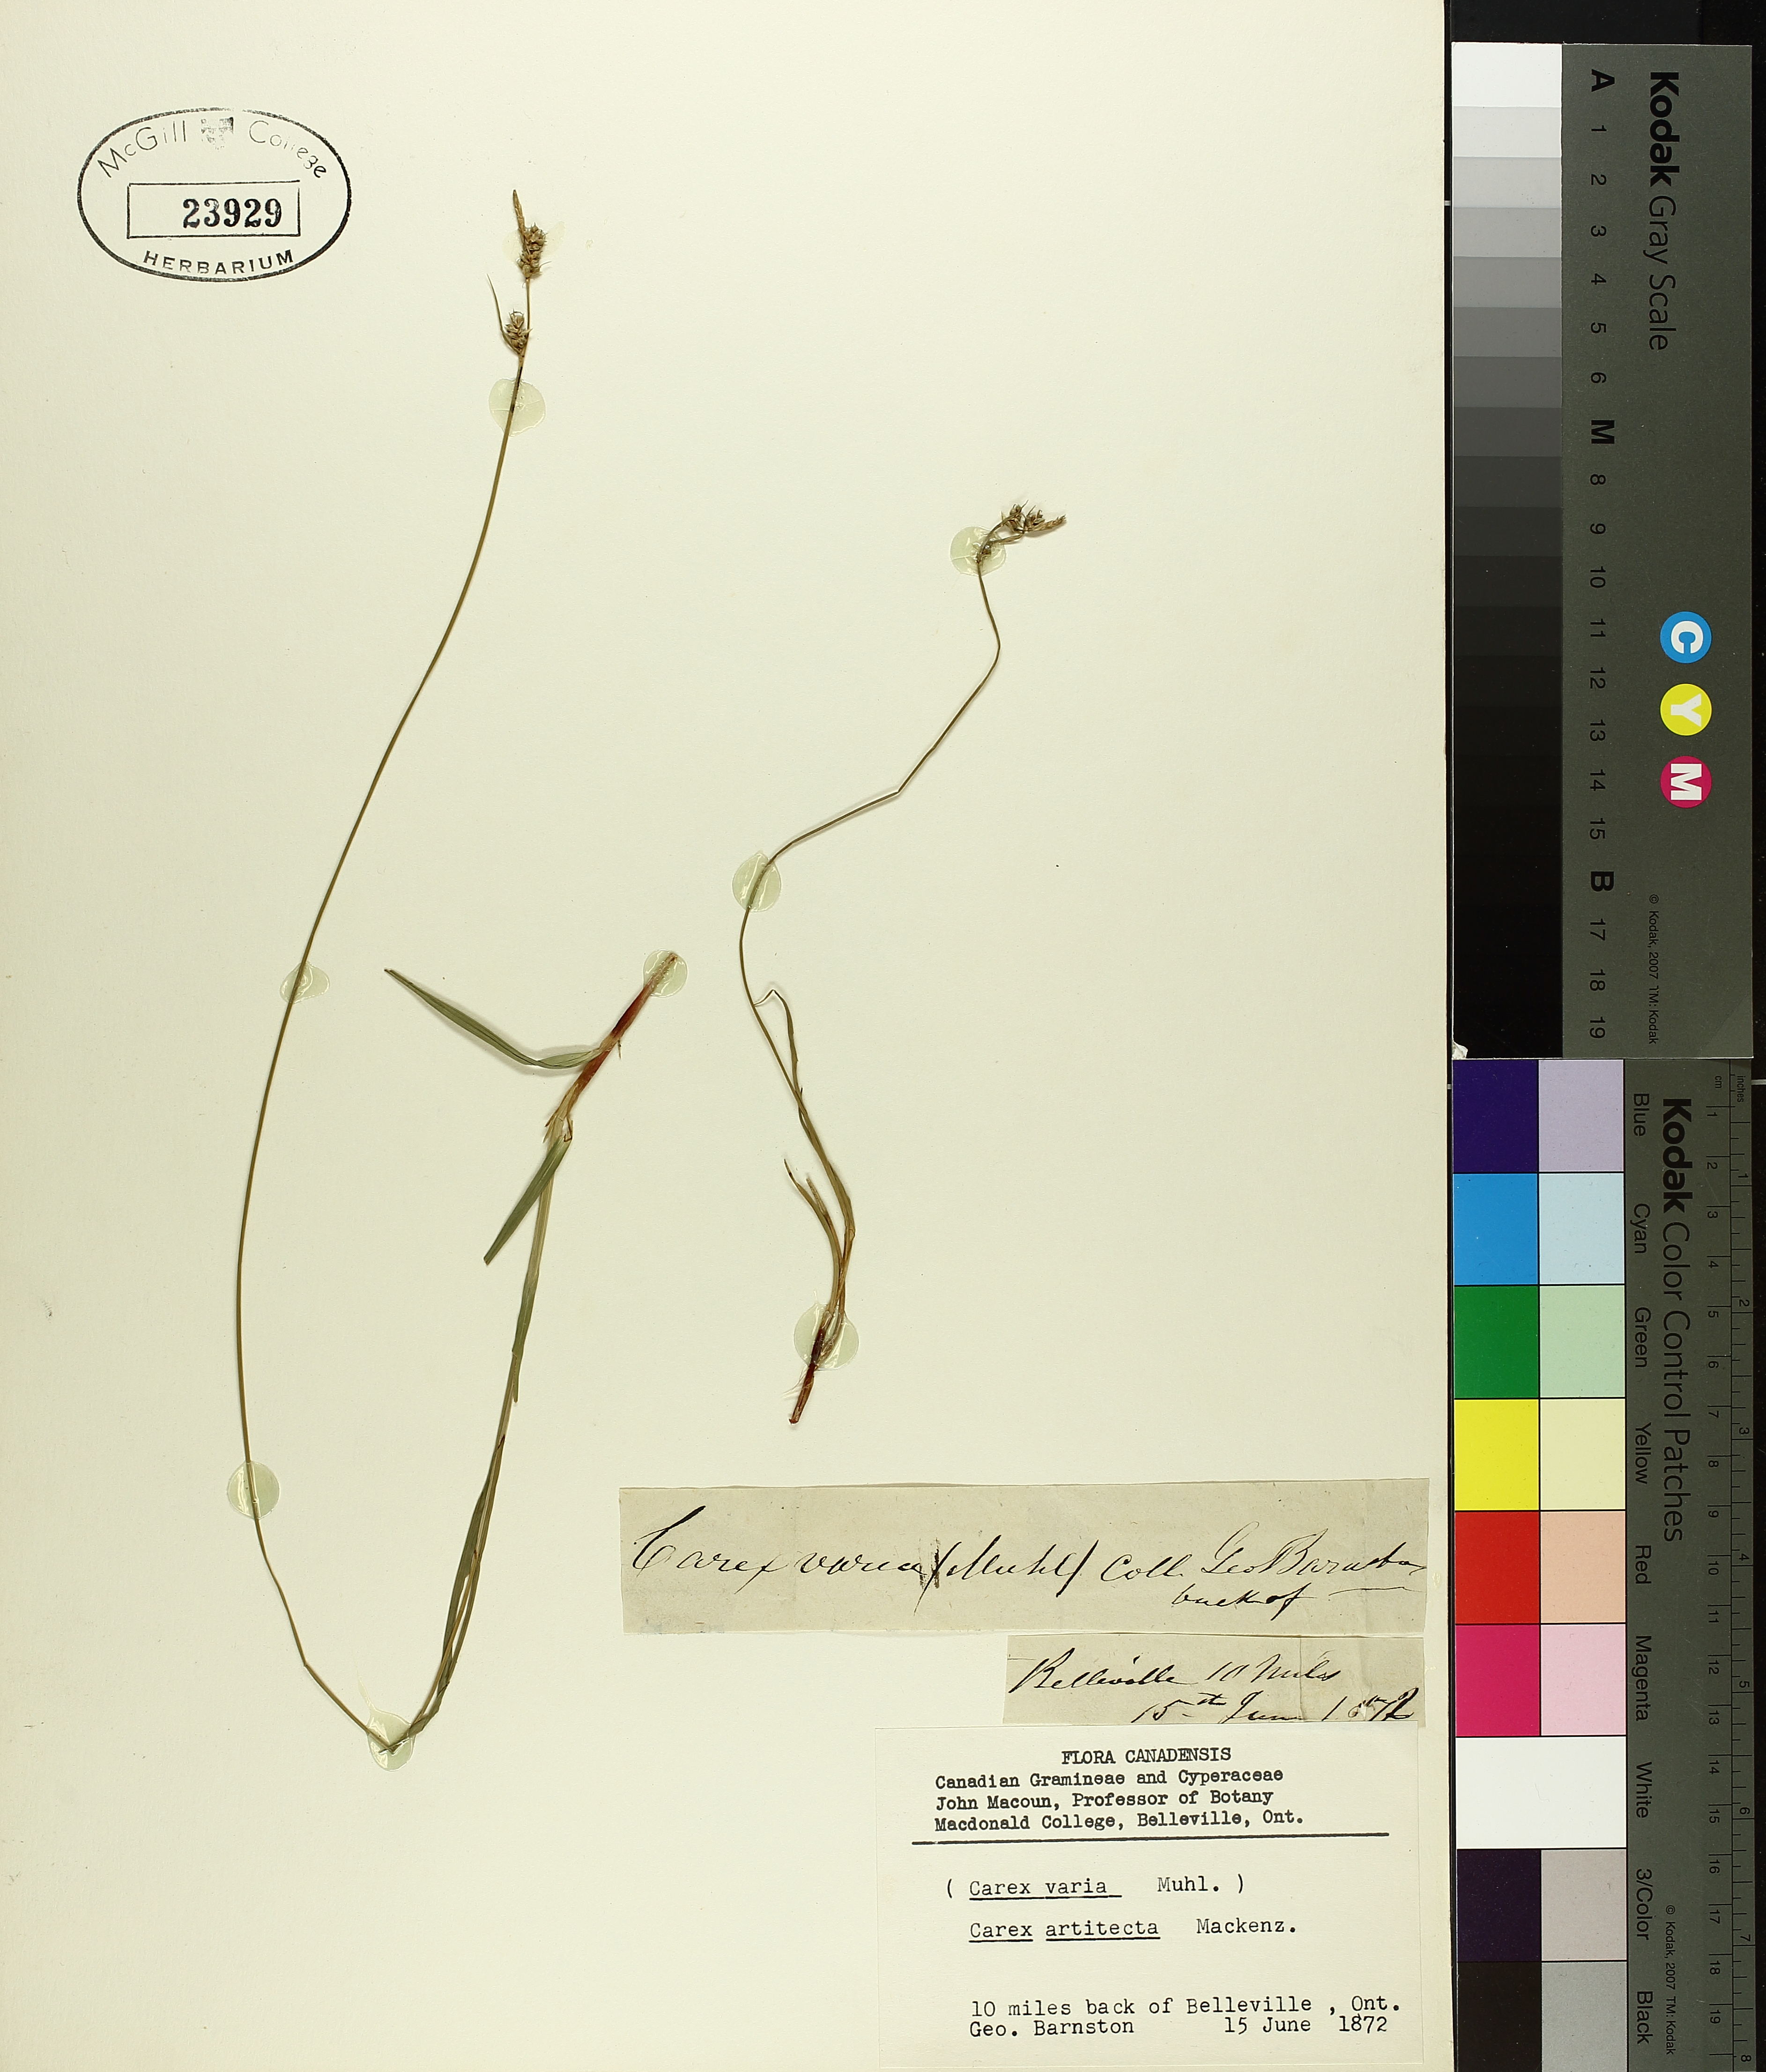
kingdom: Plantae
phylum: Tracheophyta
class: Liliopsida
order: Poales
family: Cyperaceae
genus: Carex
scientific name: Carex albicans
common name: Bellow-beaked sedge
